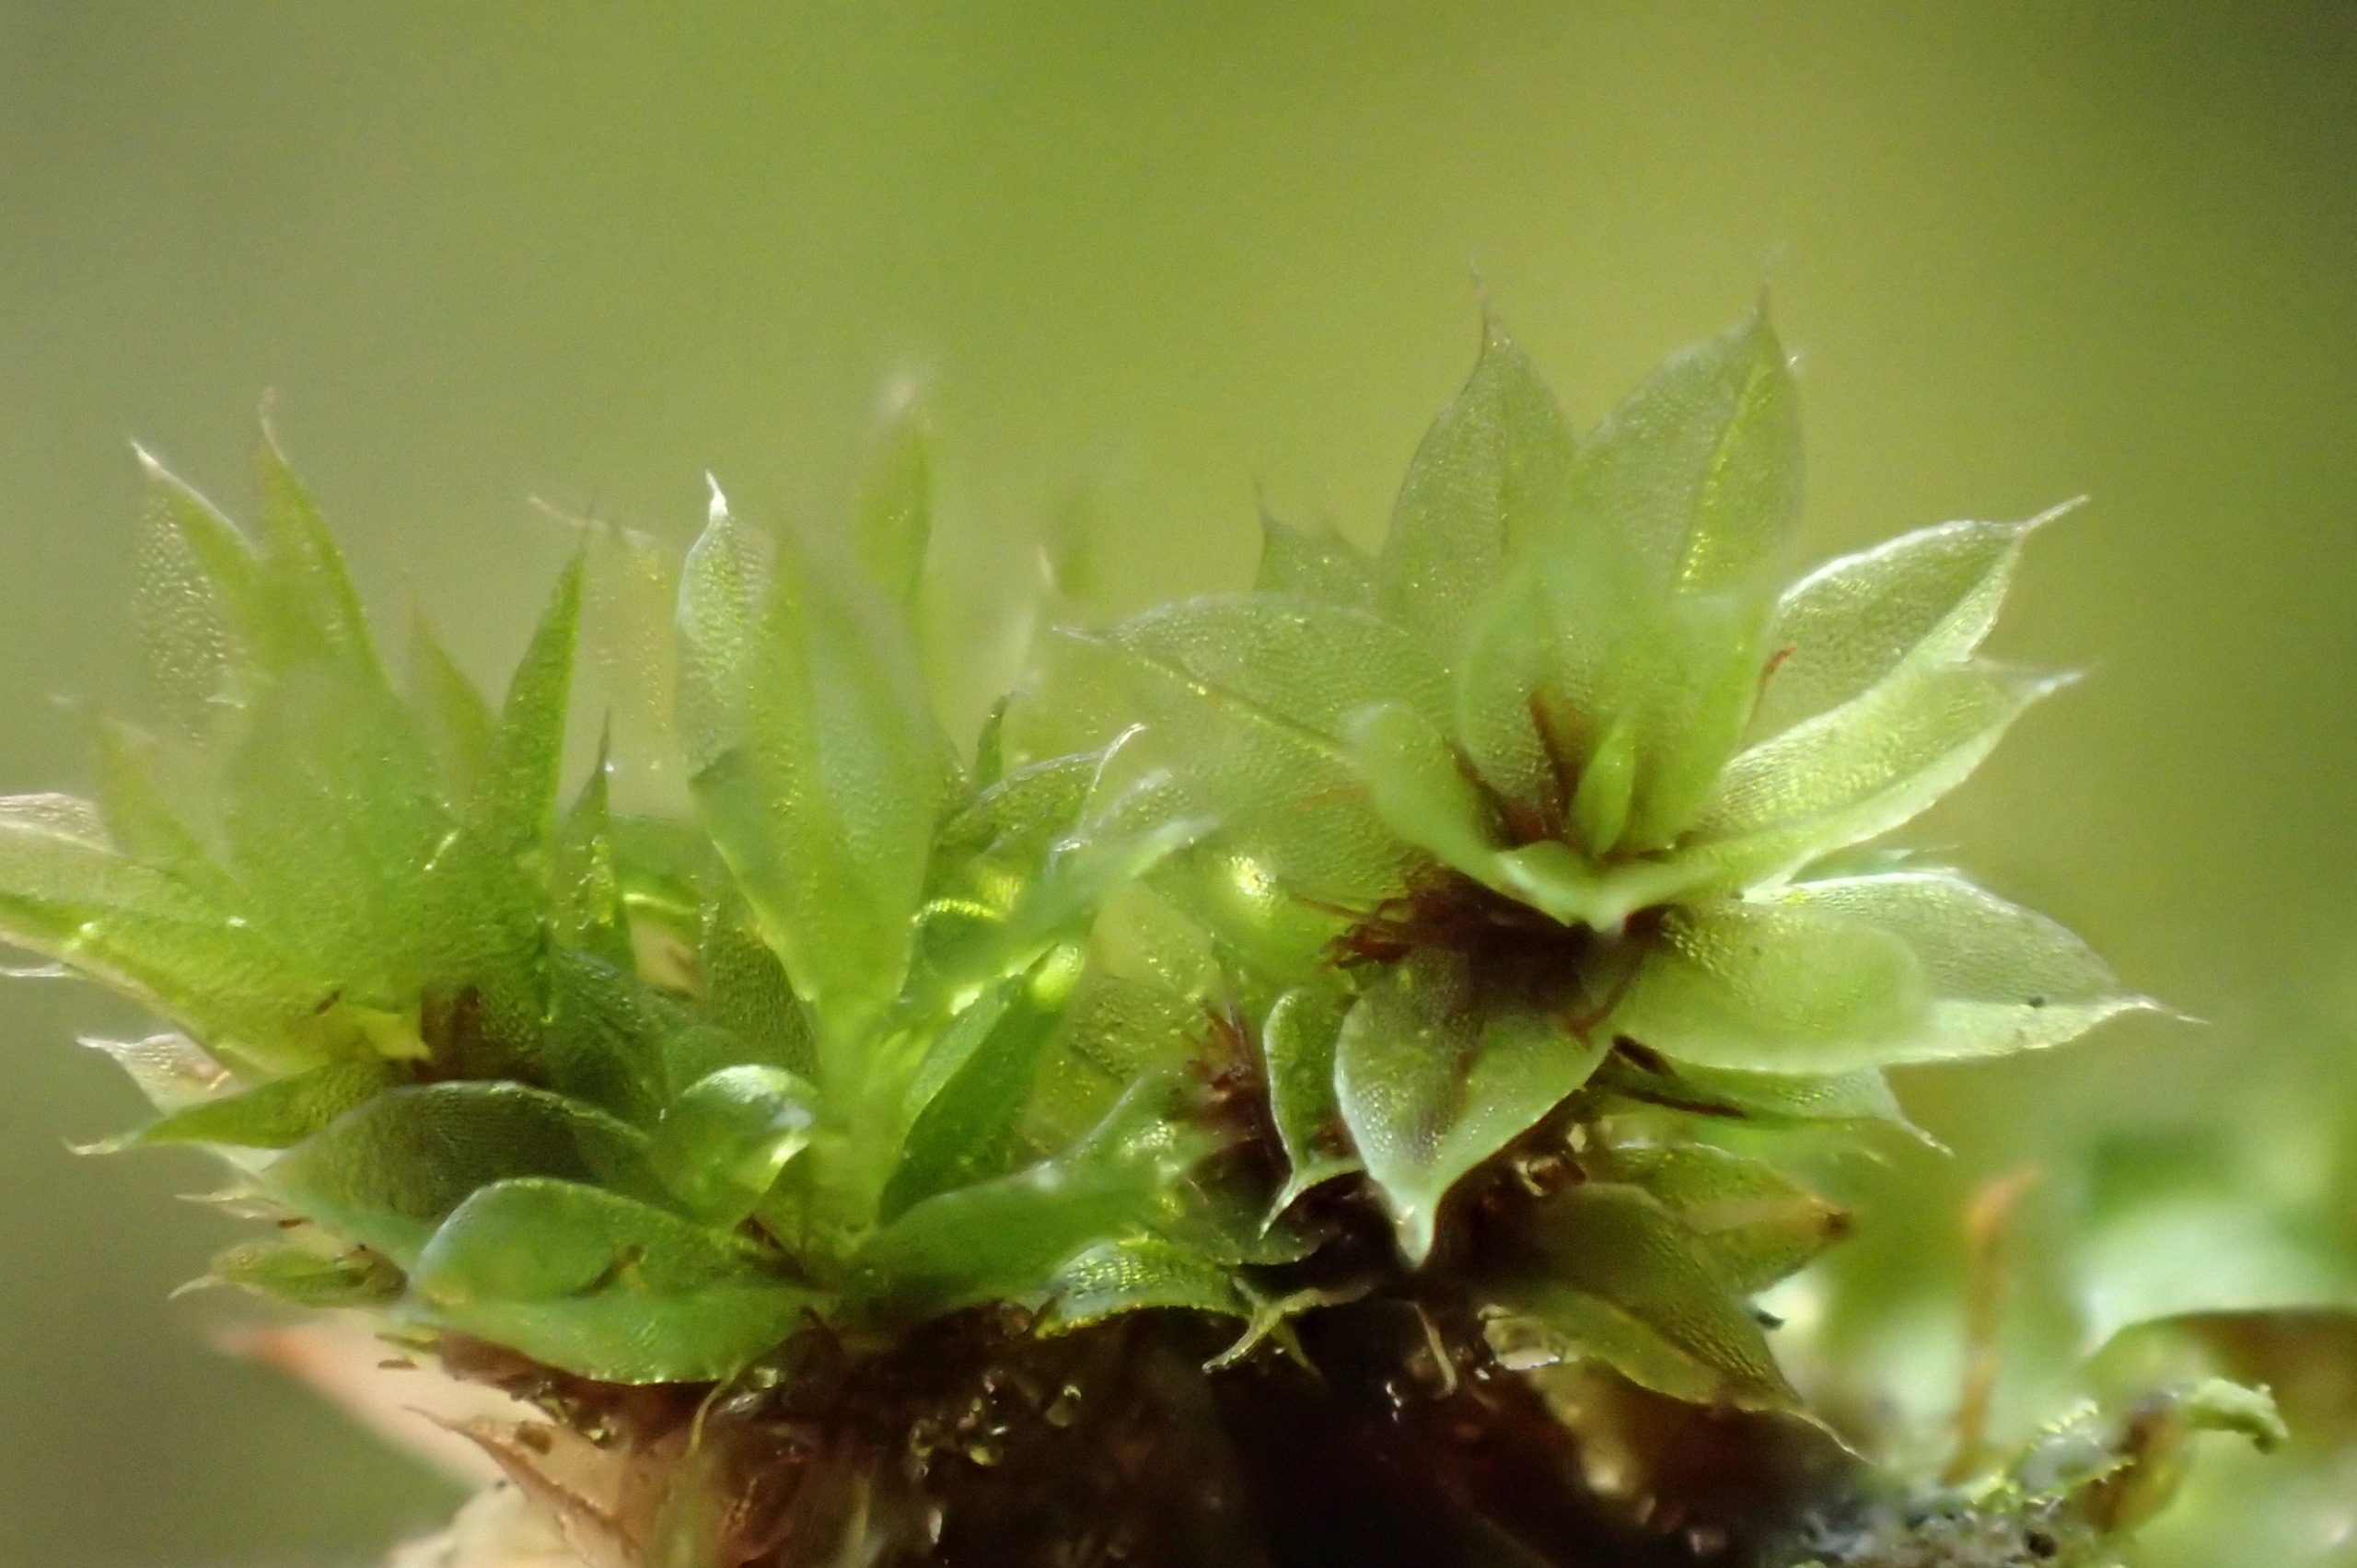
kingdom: Plantae
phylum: Bryophyta
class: Bryopsida
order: Bryales
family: Bryaceae
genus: Rosulabryum
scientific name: Rosulabryum moravicum
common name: Bark-bryum
